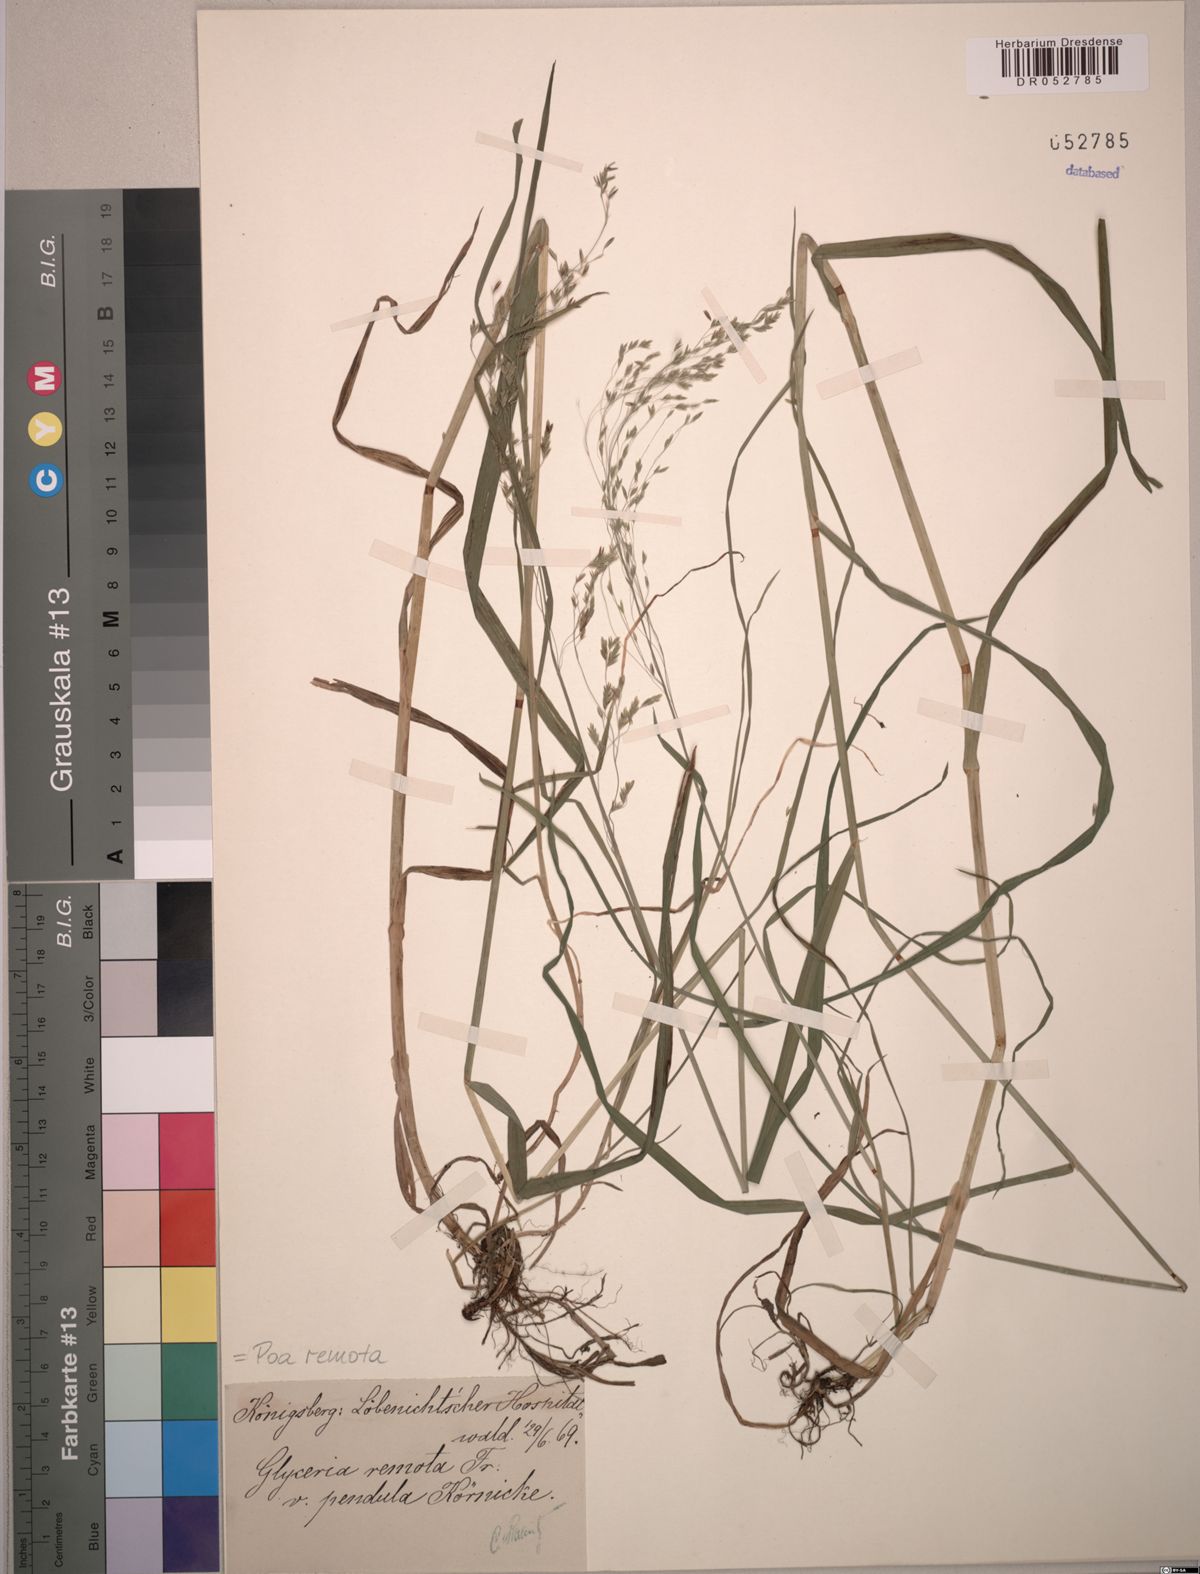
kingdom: Plantae
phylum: Tracheophyta
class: Liliopsida
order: Poales
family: Poaceae
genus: Poa
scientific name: Poa remota
